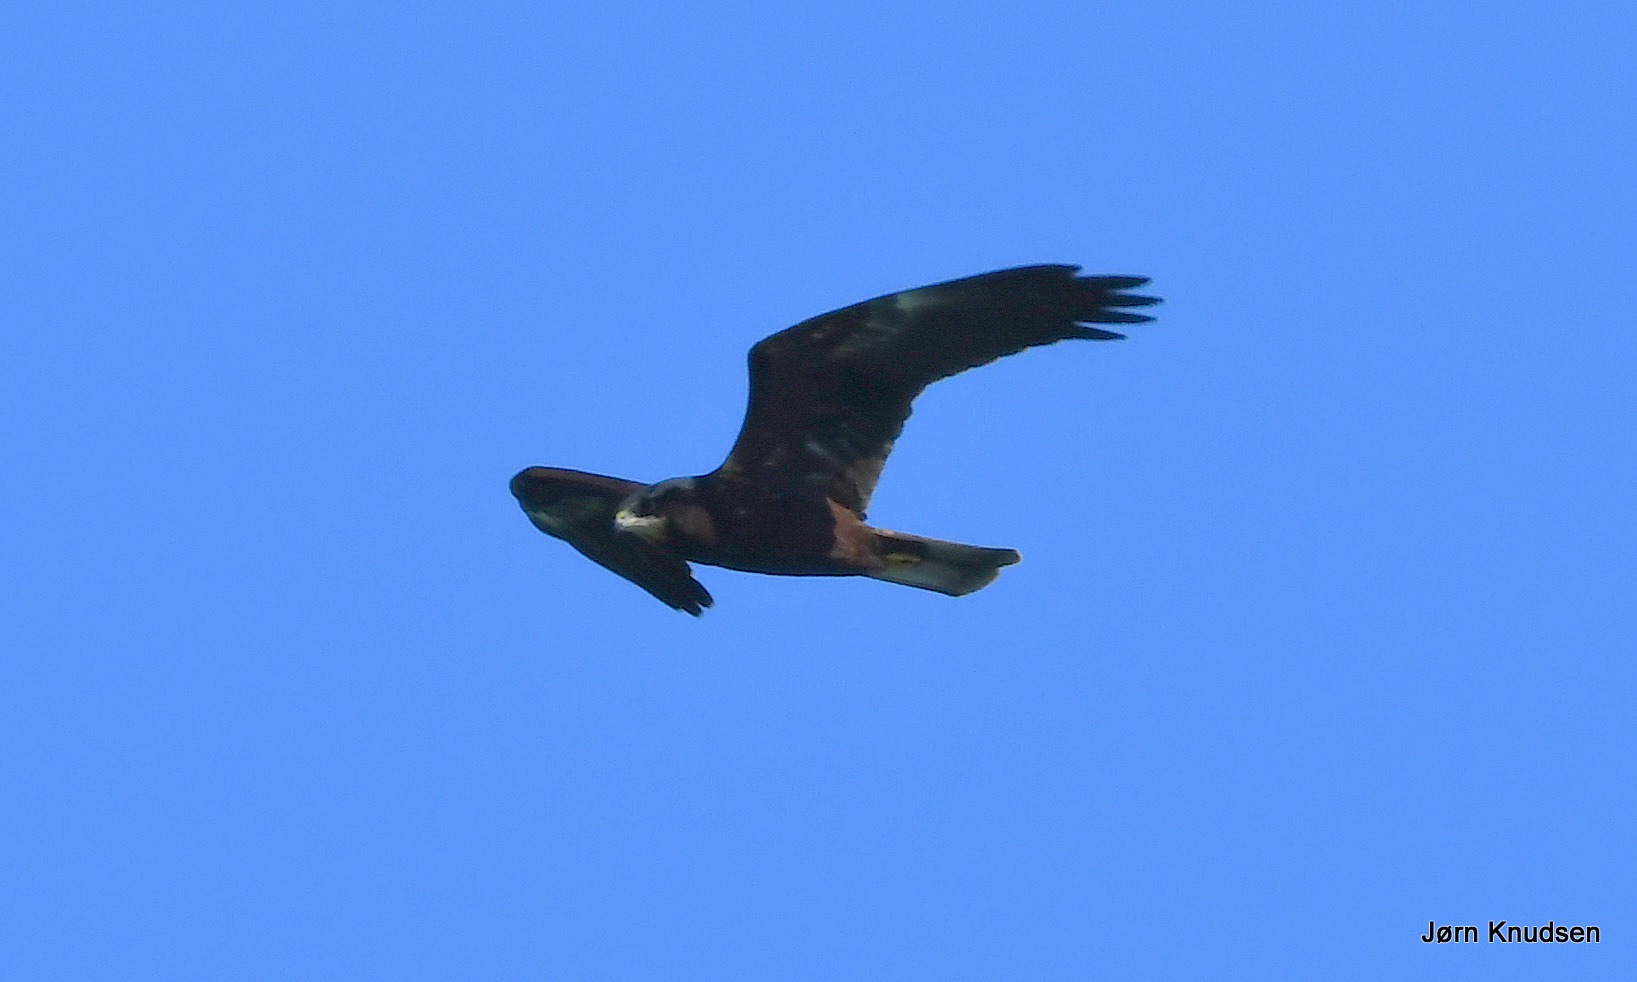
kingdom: Animalia
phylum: Chordata
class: Aves
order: Accipitriformes
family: Accipitridae
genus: Circus
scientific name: Circus aeruginosus
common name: Rørhøg
